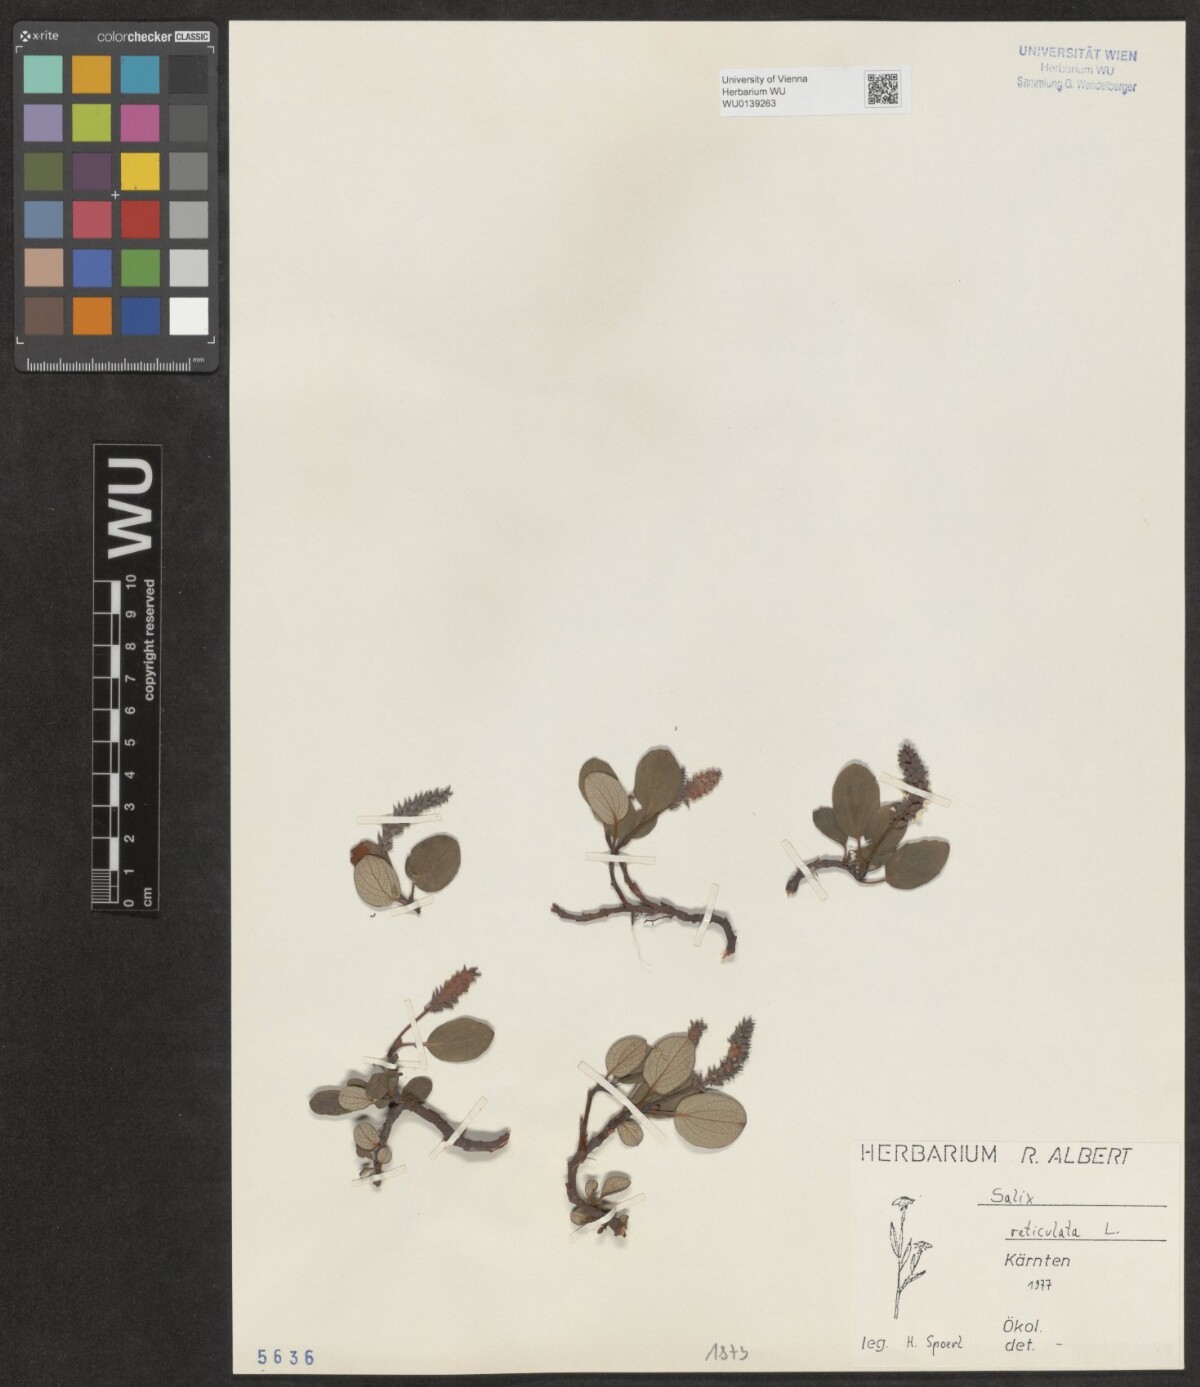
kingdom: Plantae
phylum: Tracheophyta
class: Magnoliopsida
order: Malpighiales
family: Salicaceae
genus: Salix
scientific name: Salix reticulata
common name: Net-leaved willow
